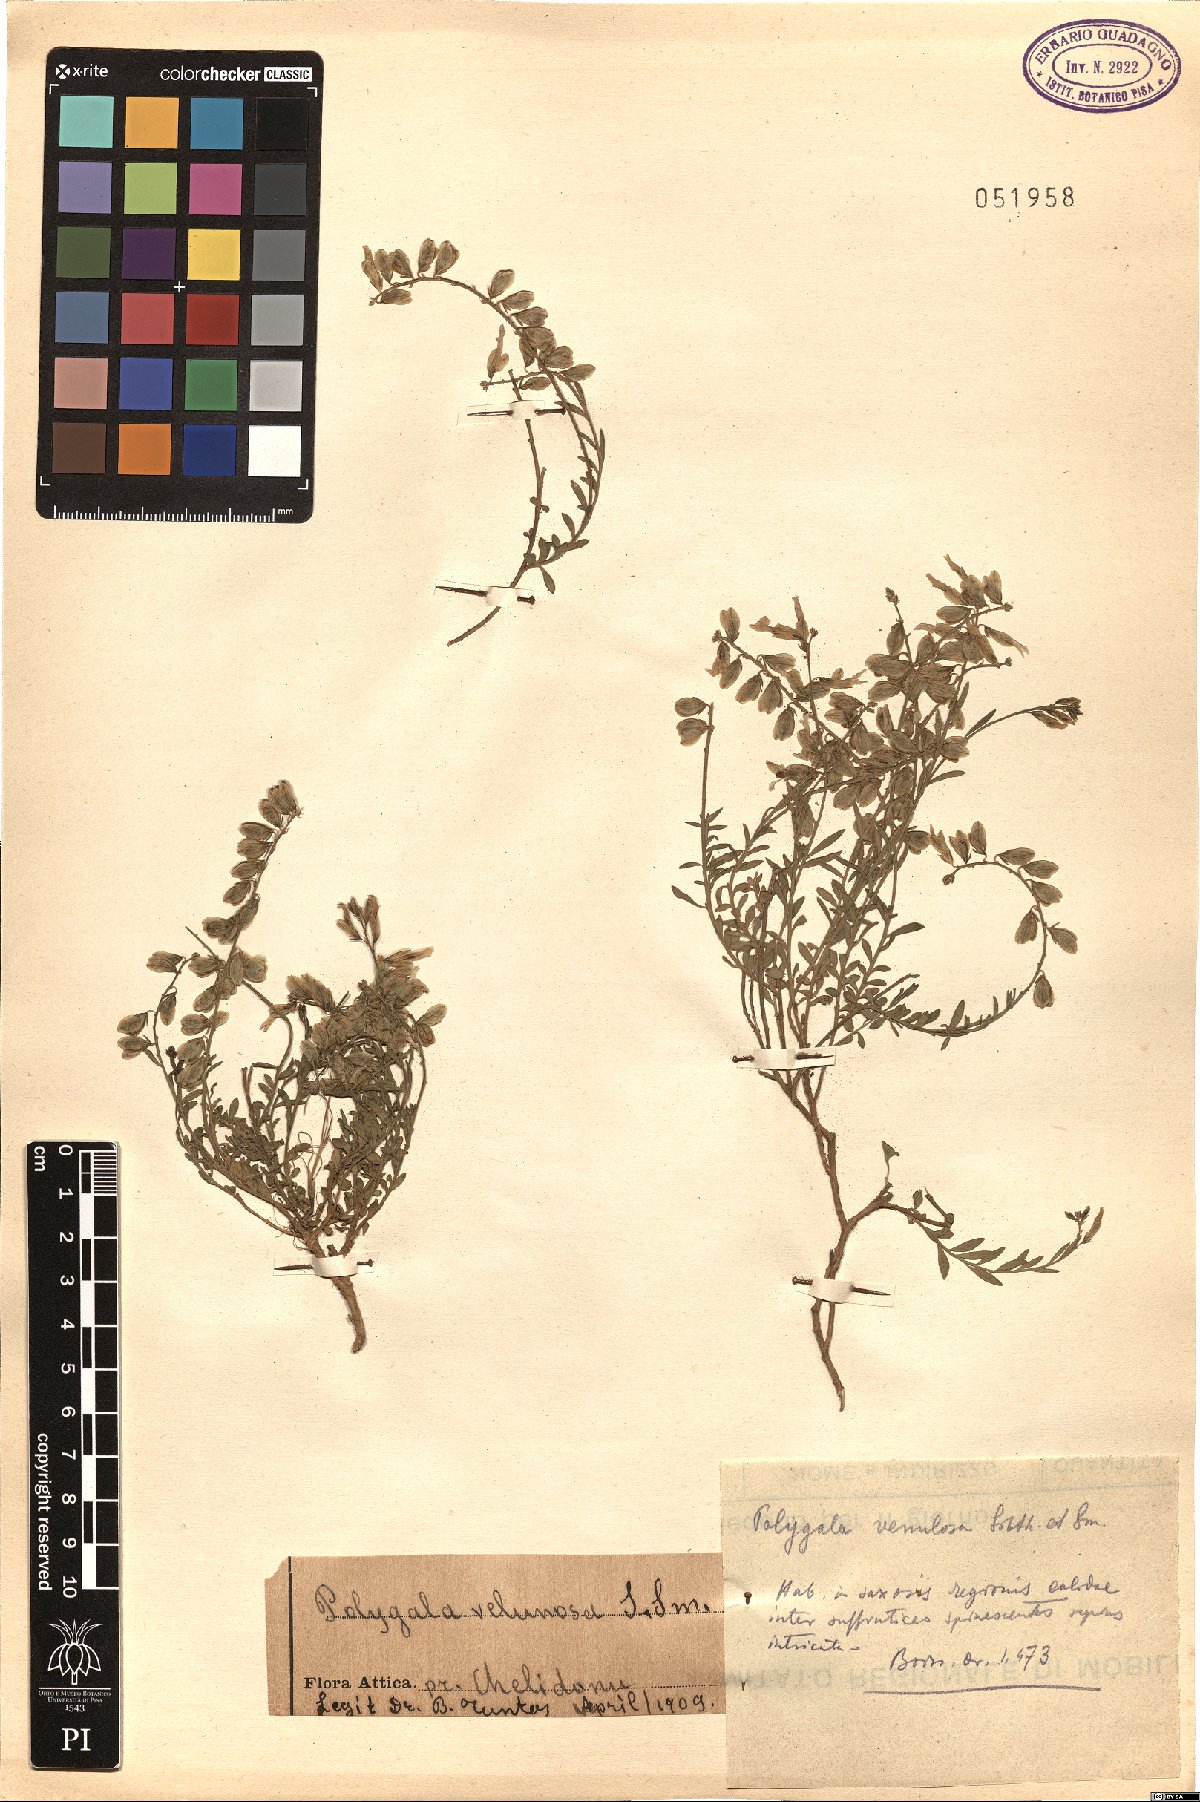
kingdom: Plantae
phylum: Tracheophyta
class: Magnoliopsida
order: Fabales
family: Polygalaceae
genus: Polygala
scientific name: Polygala venulosa
